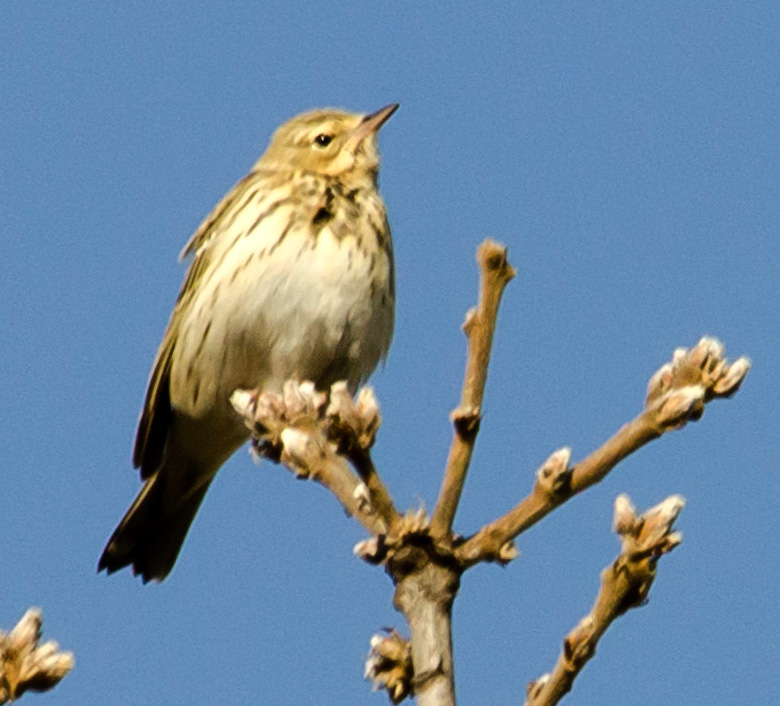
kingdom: Animalia
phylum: Chordata
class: Aves
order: Passeriformes
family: Motacillidae
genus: Anthus
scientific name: Anthus trivialis
